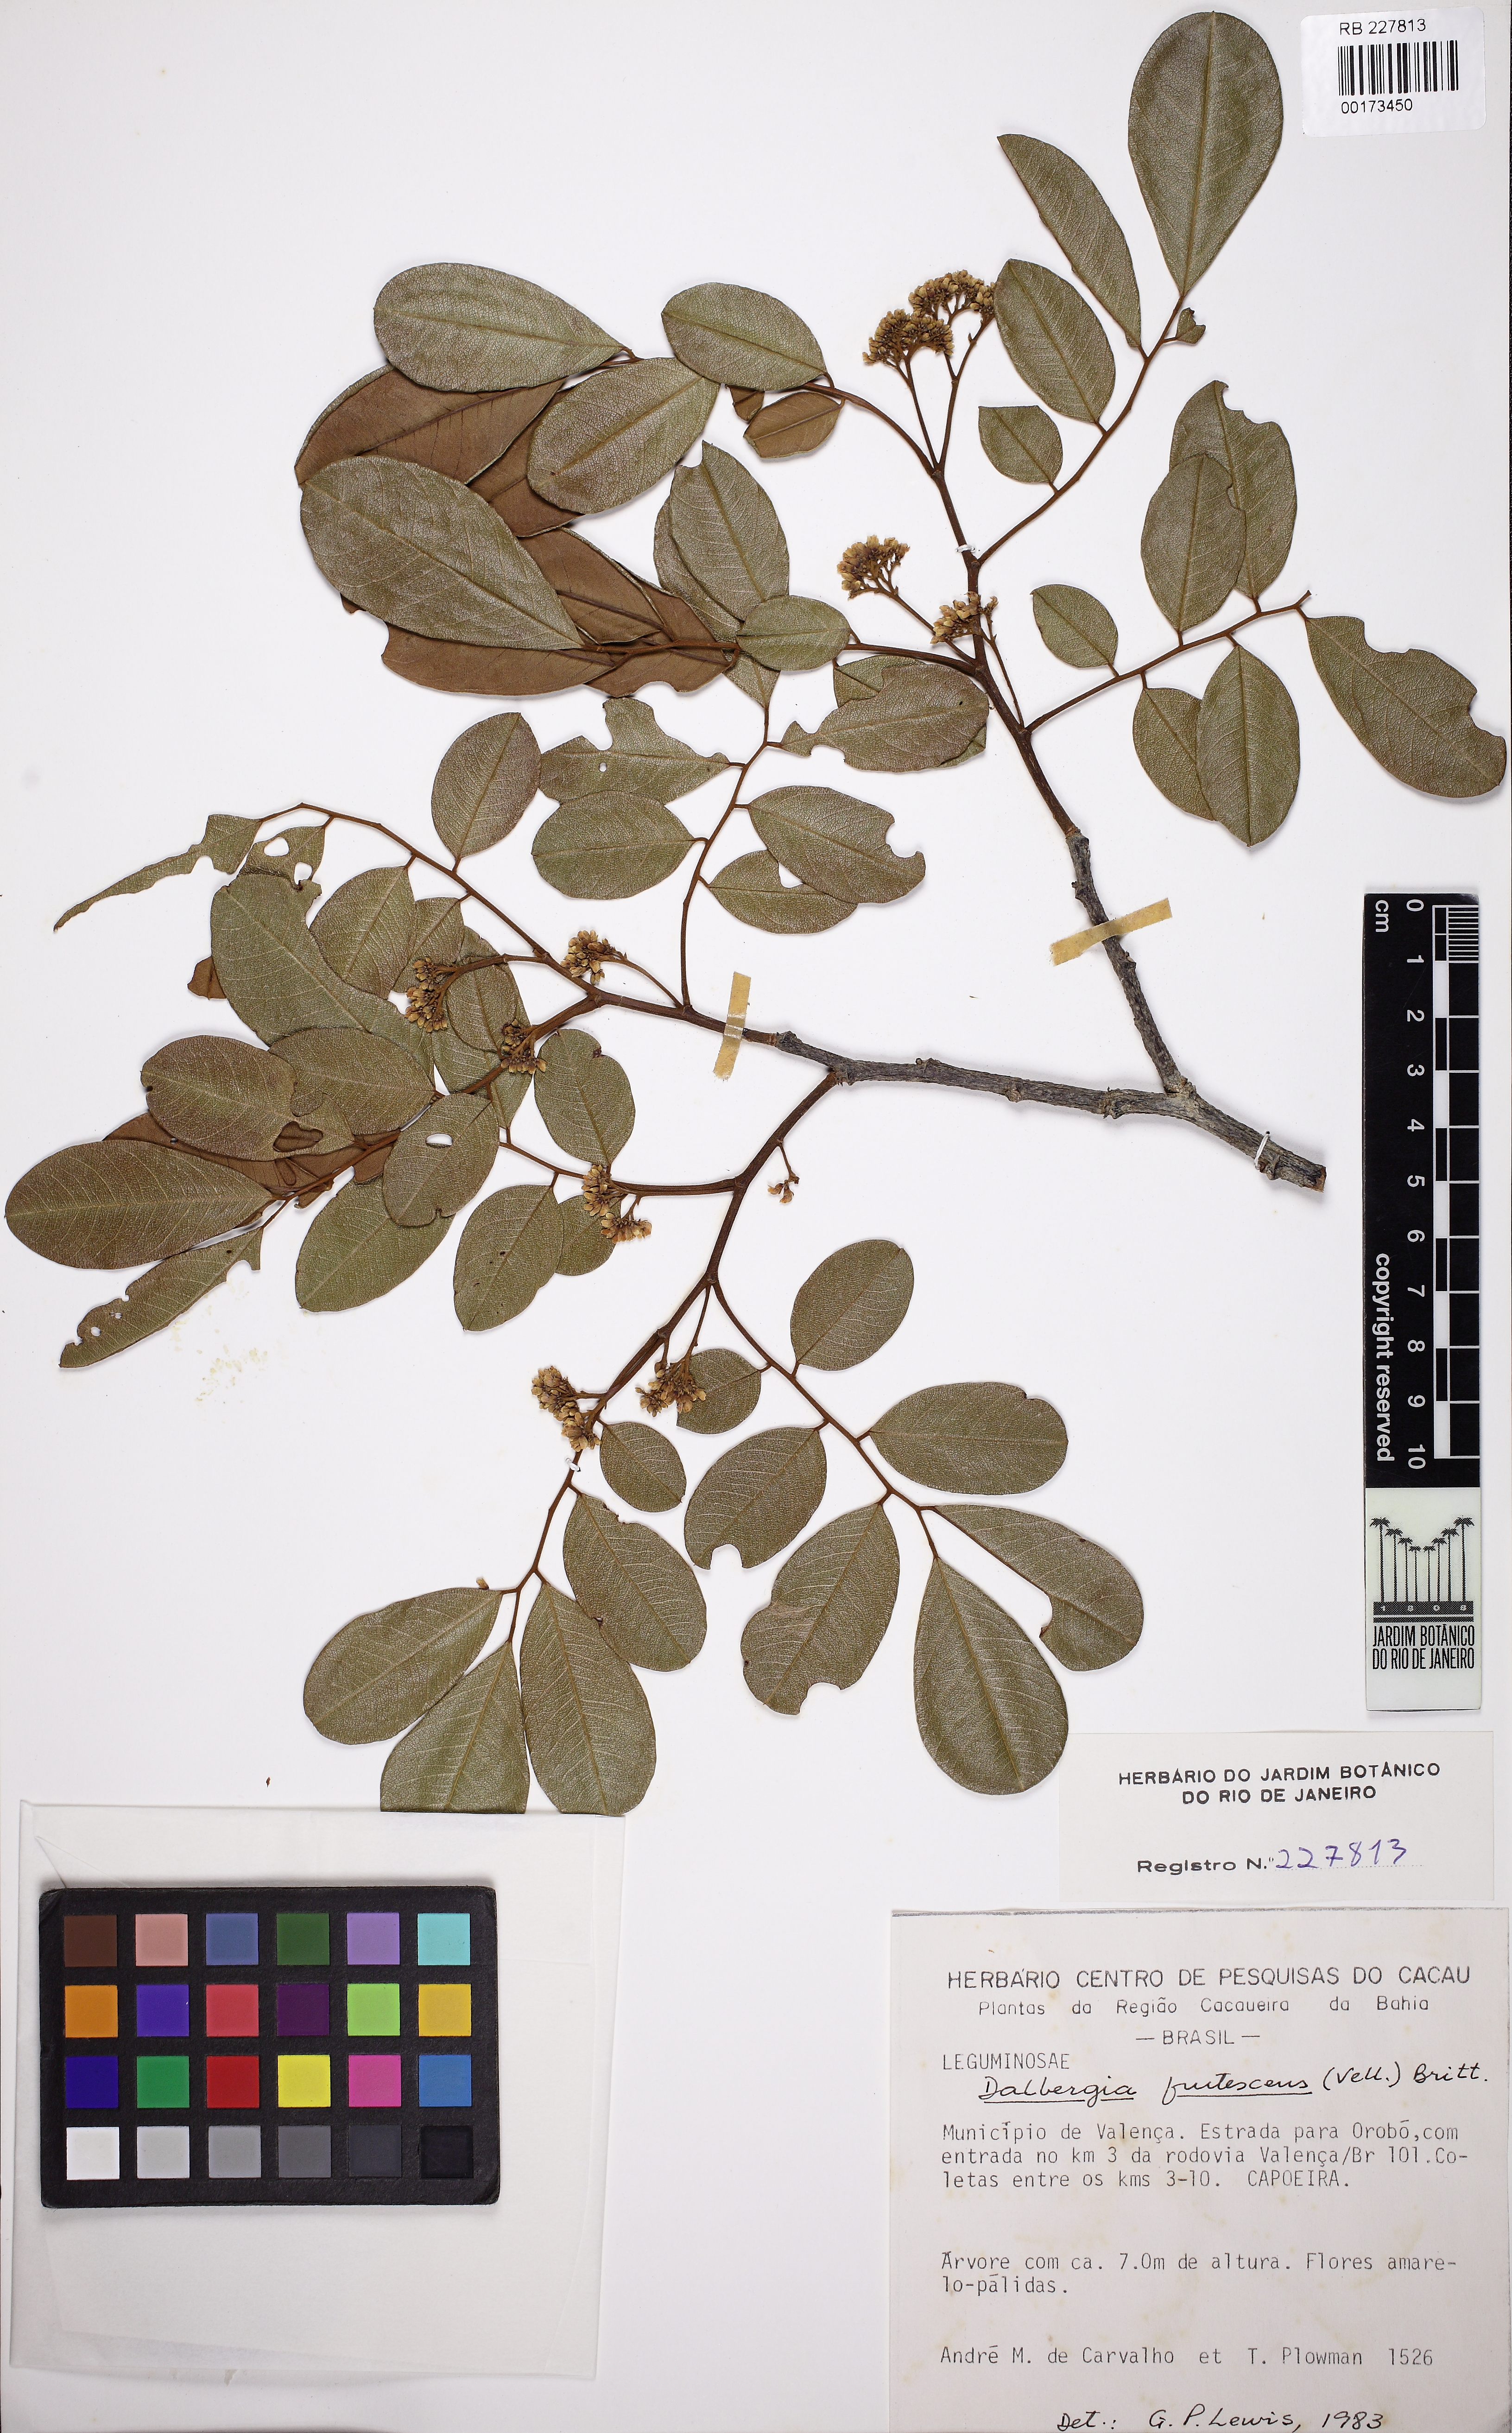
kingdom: Plantae
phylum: Tracheophyta
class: Magnoliopsida
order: Fabales
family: Fabaceae
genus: Dalbergia
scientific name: Dalbergia frutescens
